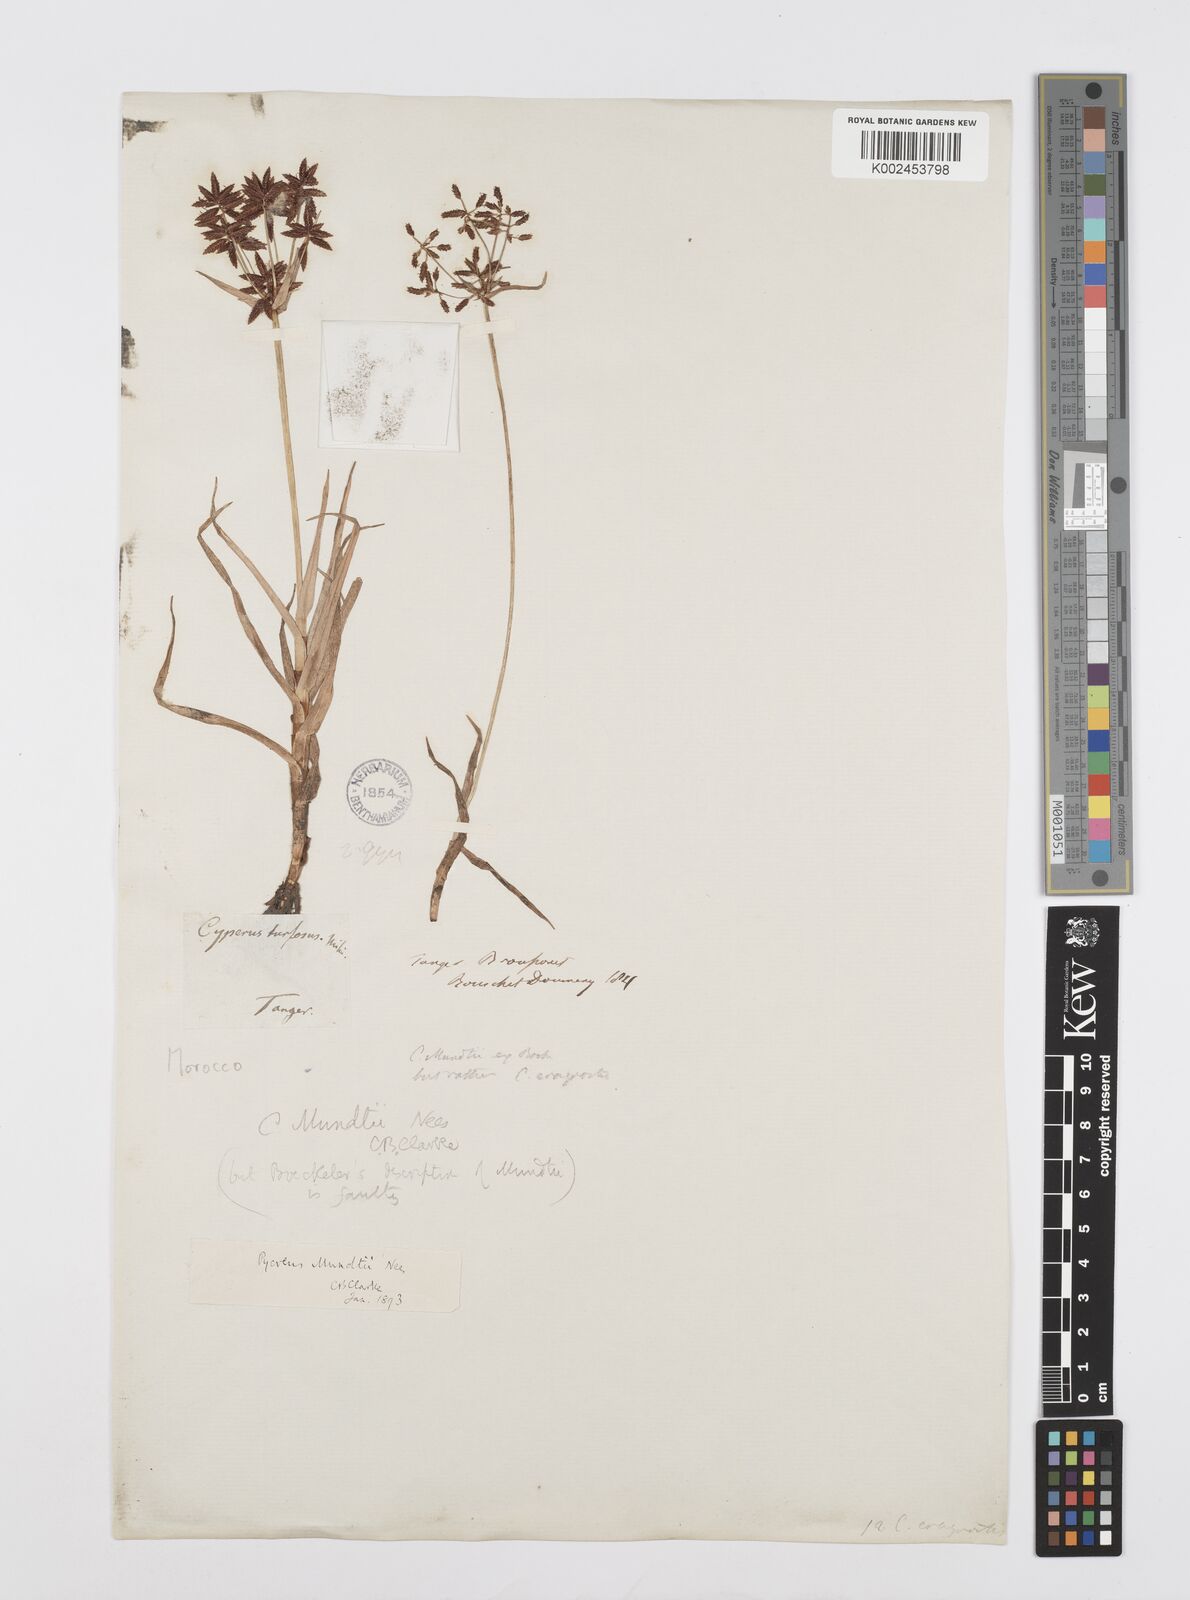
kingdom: Plantae
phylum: Tracheophyta
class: Liliopsida
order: Poales
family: Cyperaceae
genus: Cyperus
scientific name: Cyperus mundii
